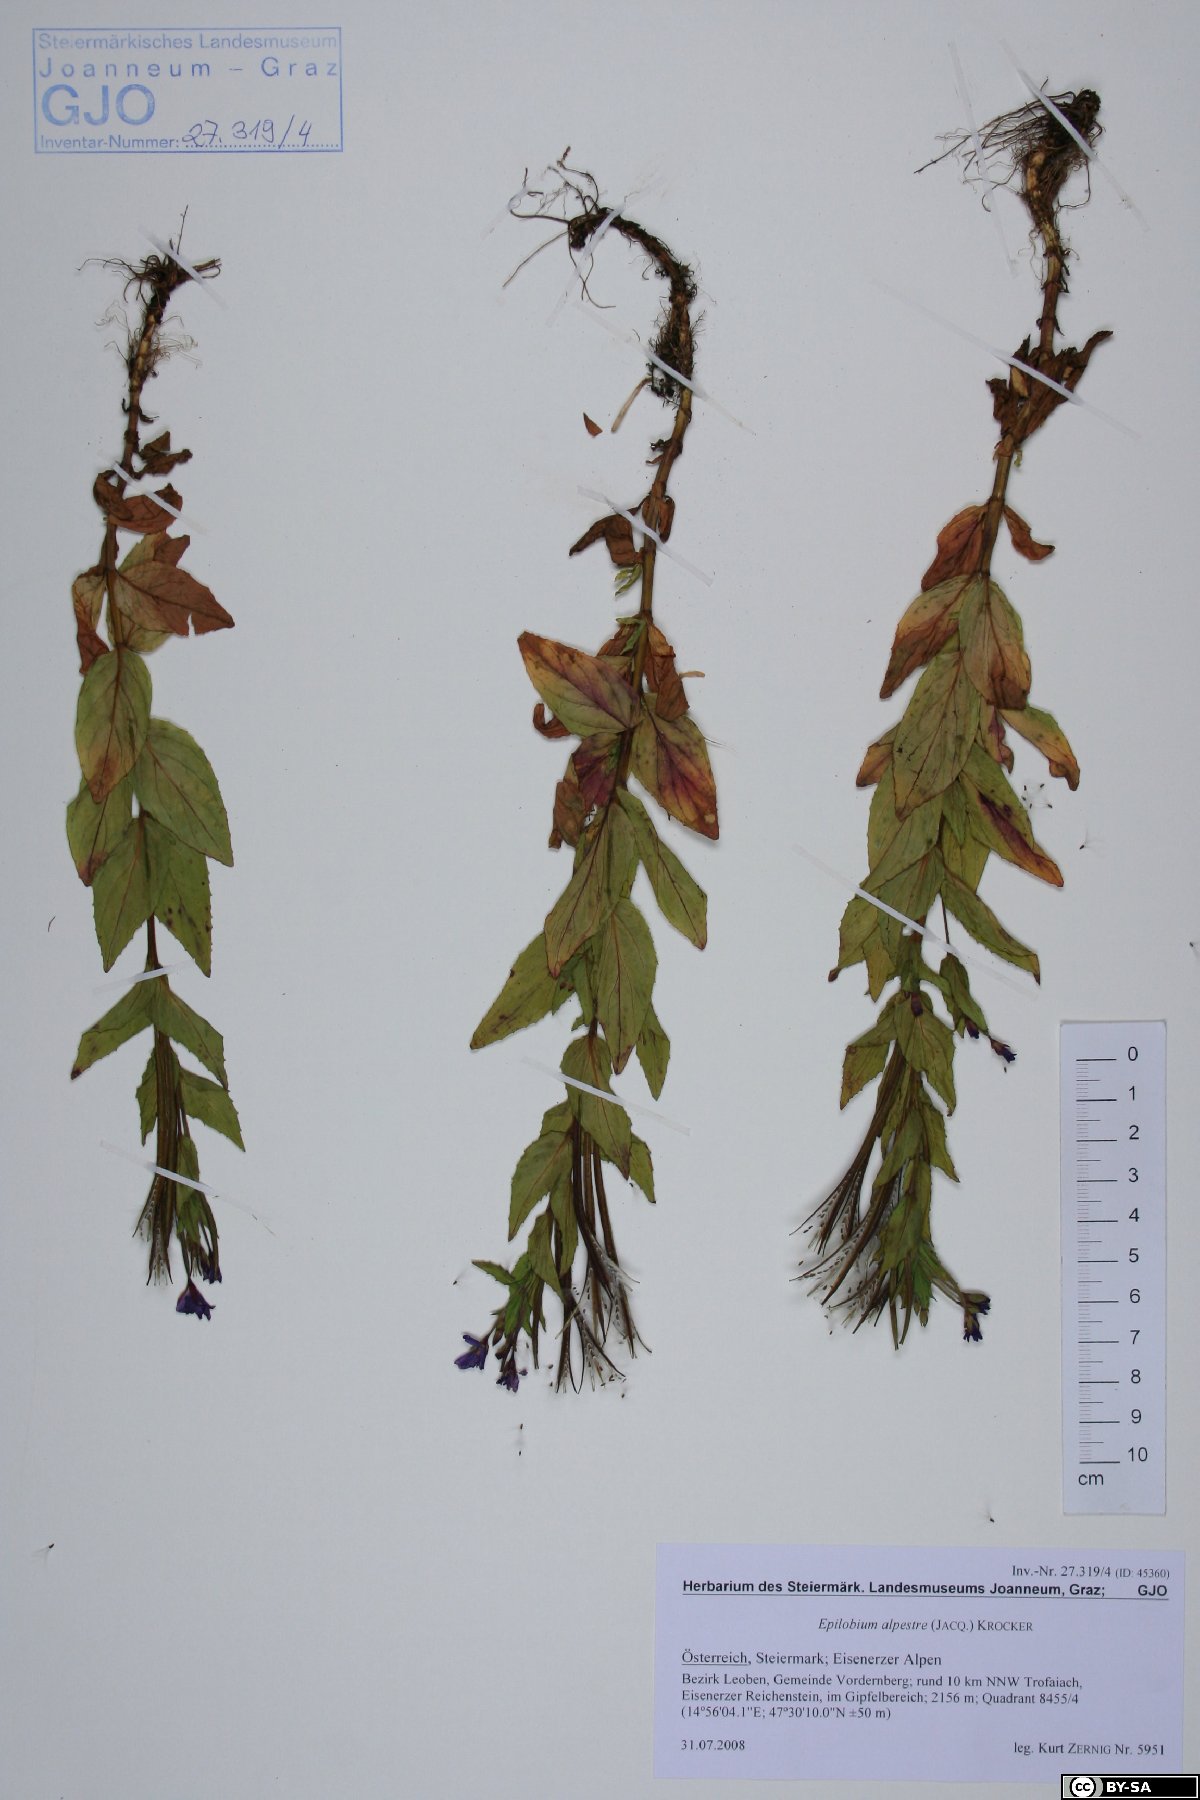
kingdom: Plantae
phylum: Tracheophyta
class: Magnoliopsida
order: Myrtales
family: Onagraceae
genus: Epilobium
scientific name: Epilobium alpestre
